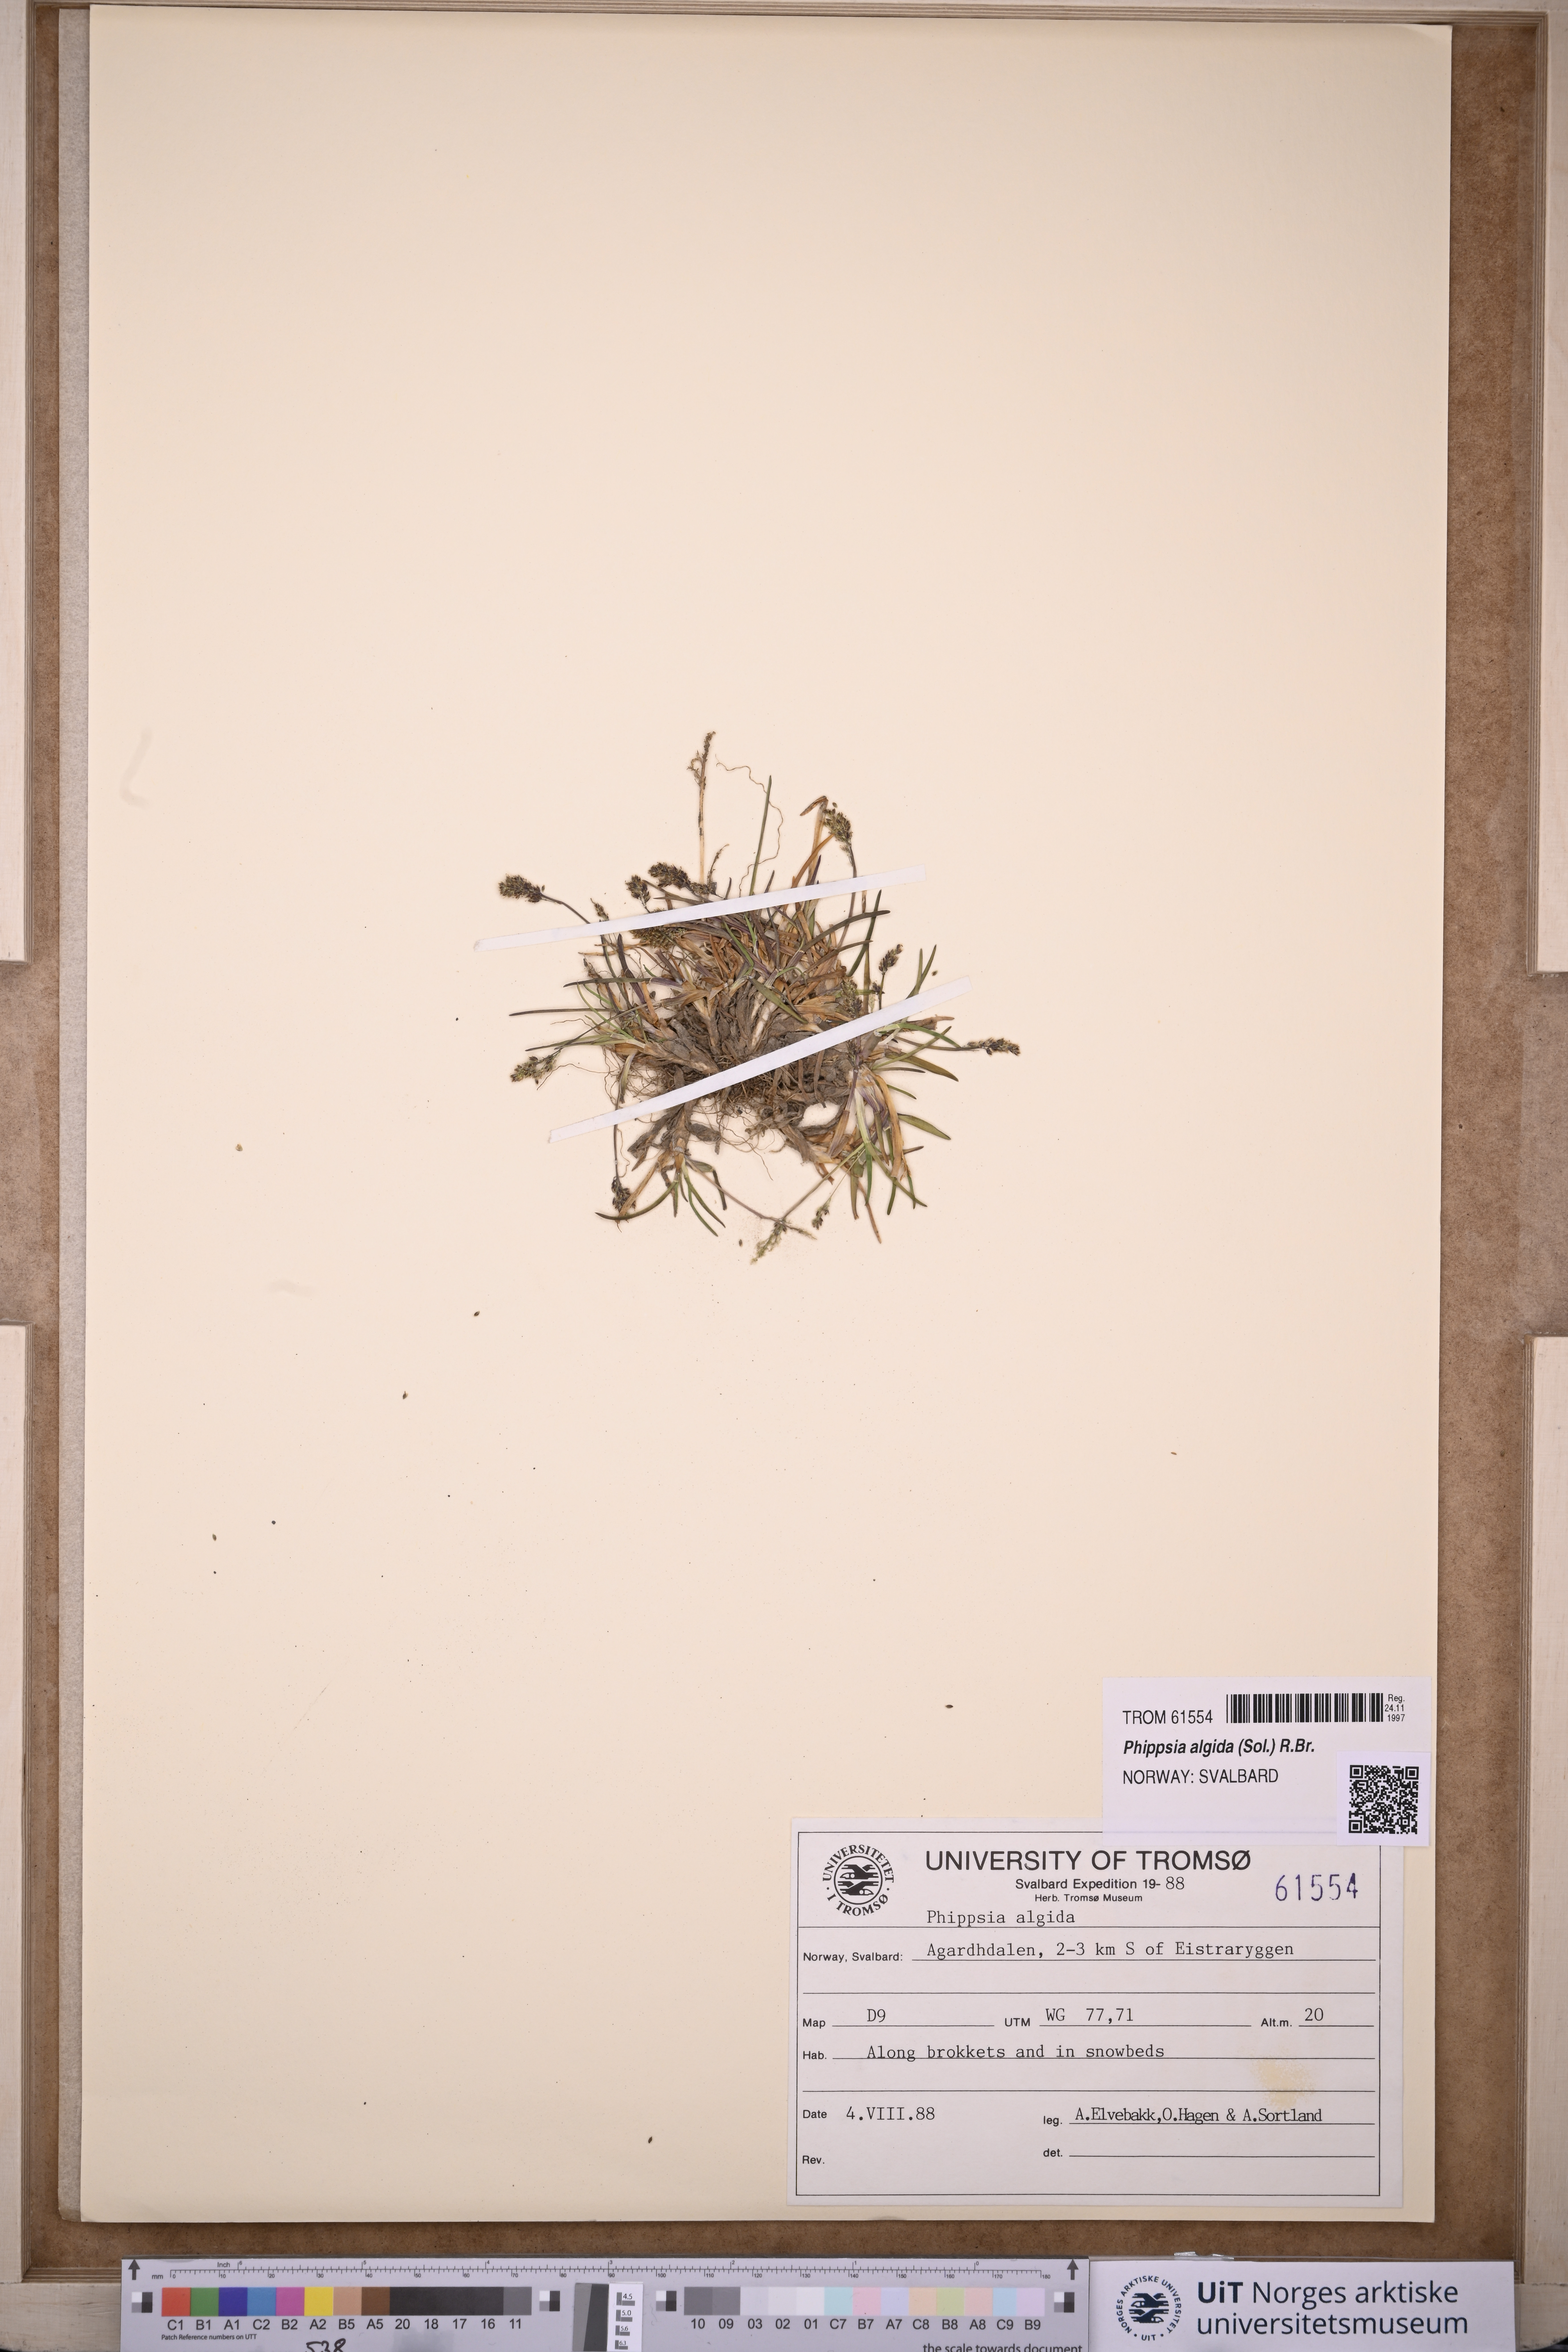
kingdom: Plantae
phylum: Tracheophyta
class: Liliopsida
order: Poales
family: Poaceae
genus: Phippsia
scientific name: Phippsia algida
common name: Ice grass
